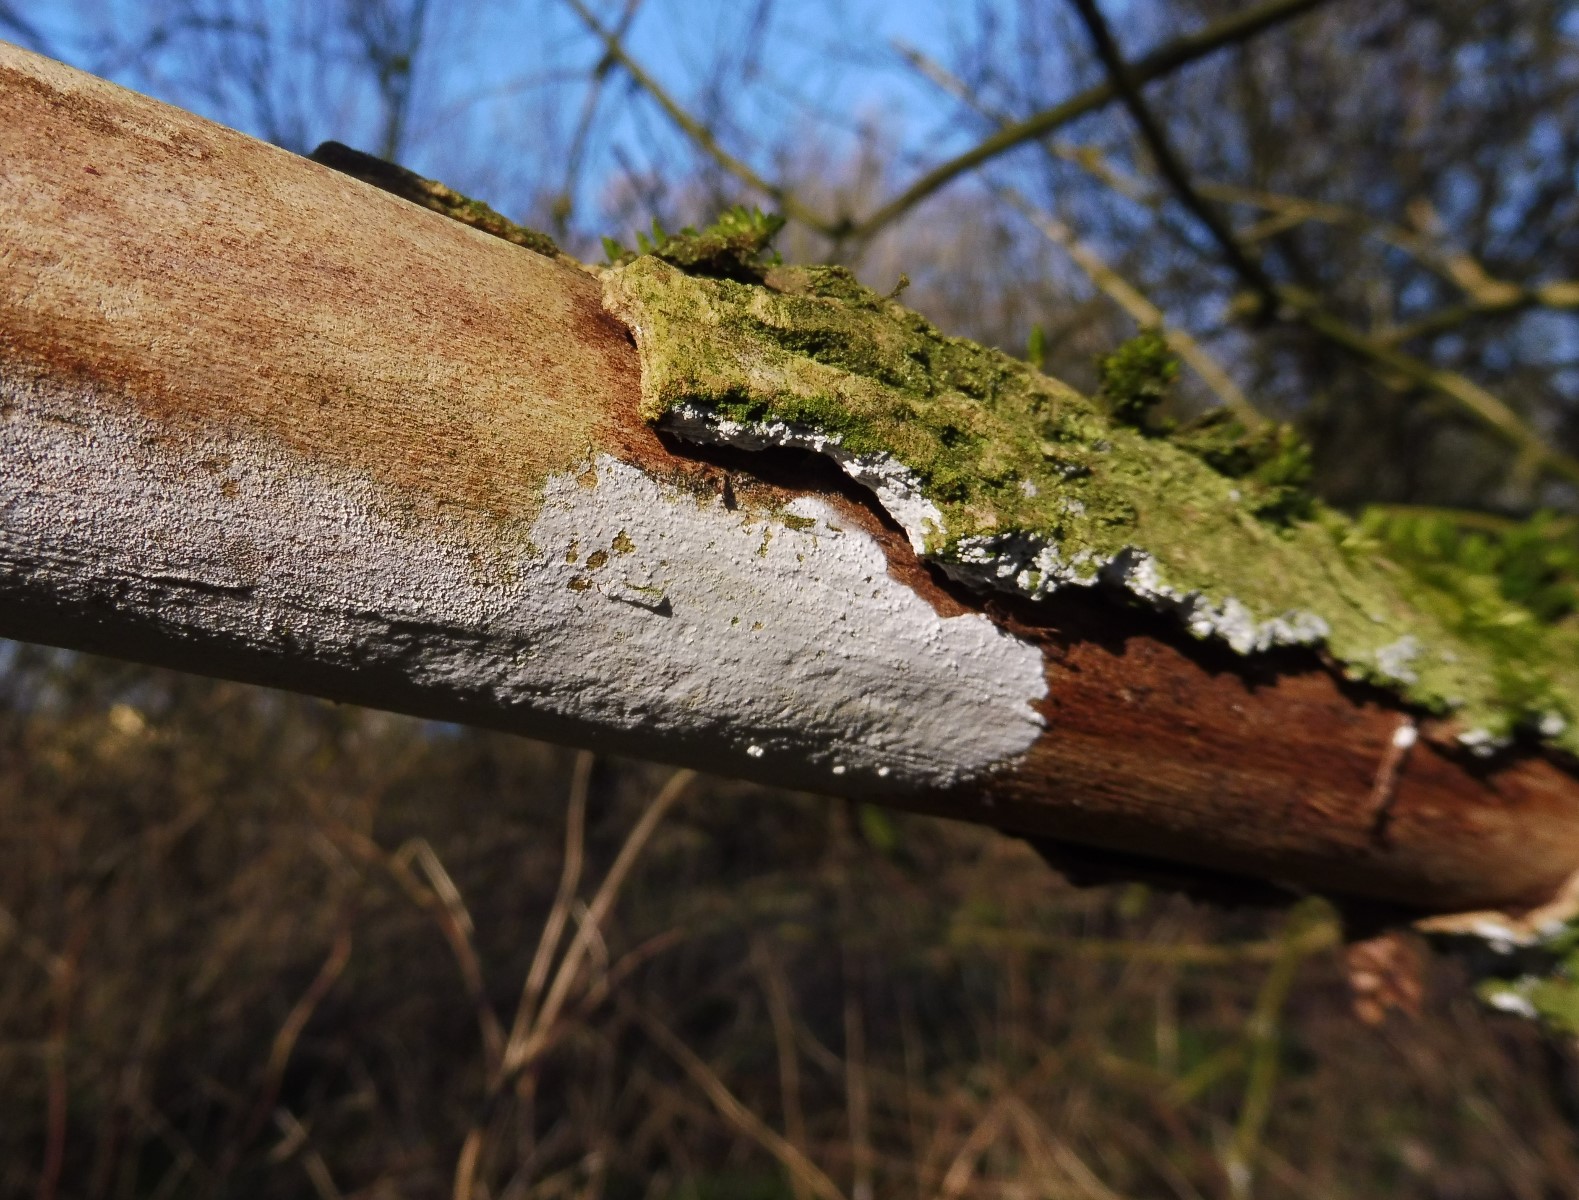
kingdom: Fungi
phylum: Basidiomycota
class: Agaricomycetes
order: Corticiales
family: Corticiaceae
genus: Lyomyces
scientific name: Lyomyces sambuci
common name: almindelig hyldehinde
